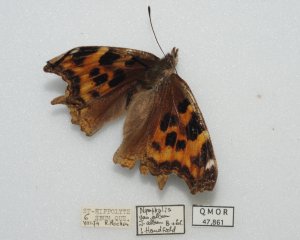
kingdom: Animalia
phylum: Arthropoda
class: Insecta
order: Lepidoptera
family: Nymphalidae
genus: Polygonia
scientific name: Polygonia vaualbum
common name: Compton Tortoiseshell
